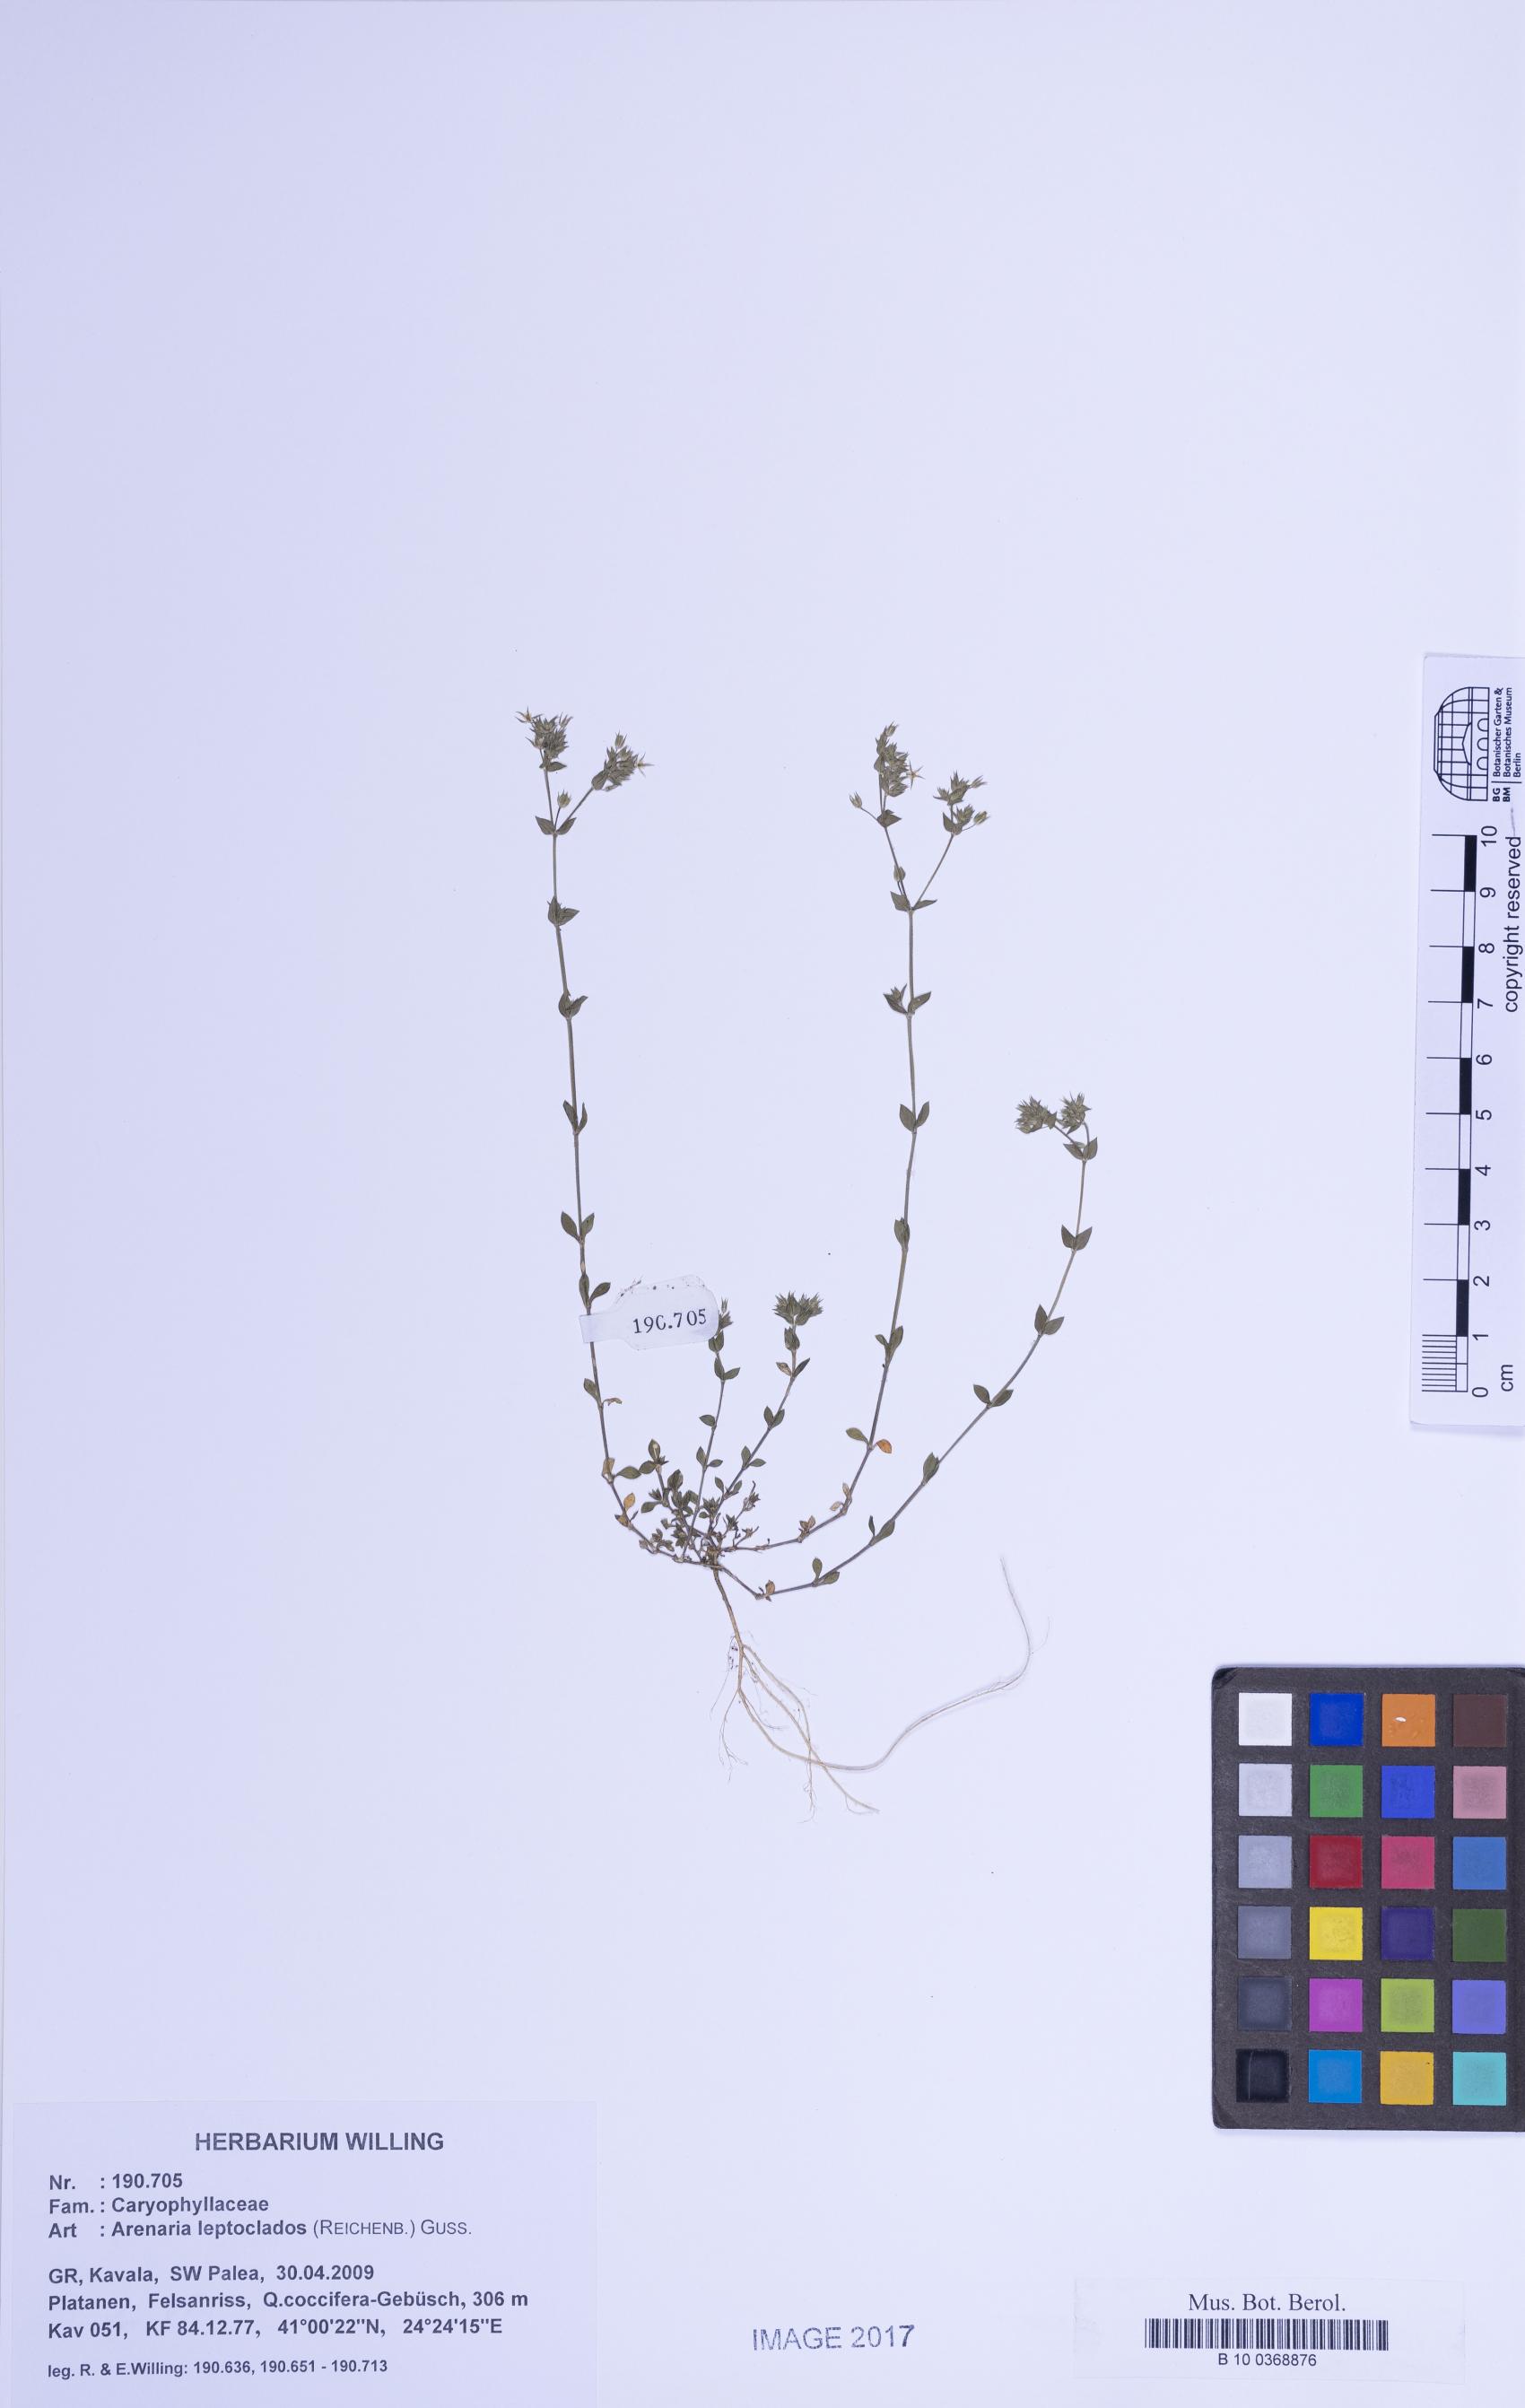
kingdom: Plantae
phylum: Tracheophyta
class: Magnoliopsida
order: Caryophyllales
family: Caryophyllaceae
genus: Arenaria
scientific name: Arenaria leptoclados
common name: Thyme-leaved sandwort
